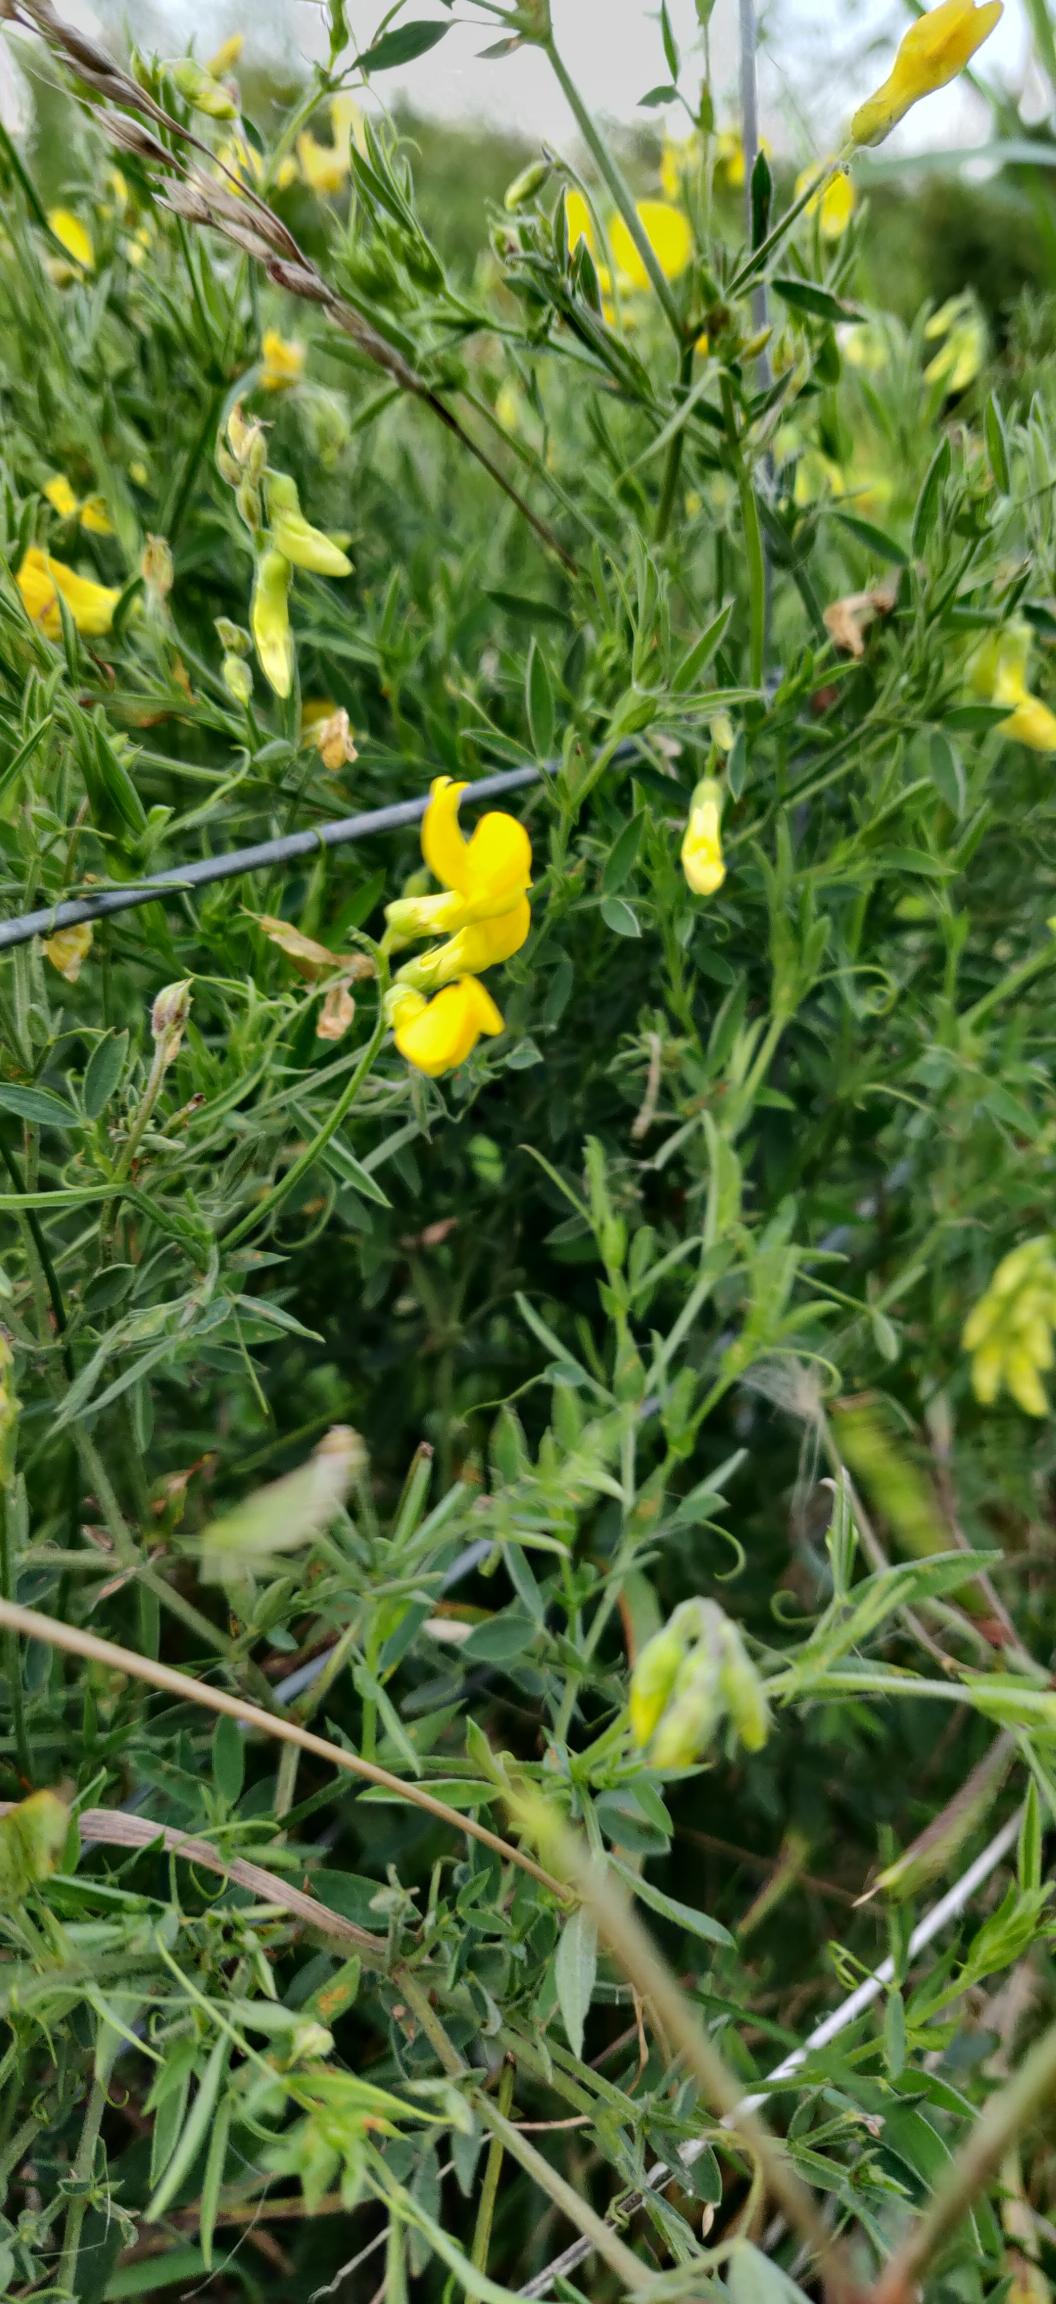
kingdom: Plantae
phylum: Tracheophyta
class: Magnoliopsida
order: Fabales
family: Fabaceae
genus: Lathyrus
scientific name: Lathyrus pratensis
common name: Gul fladbælg
